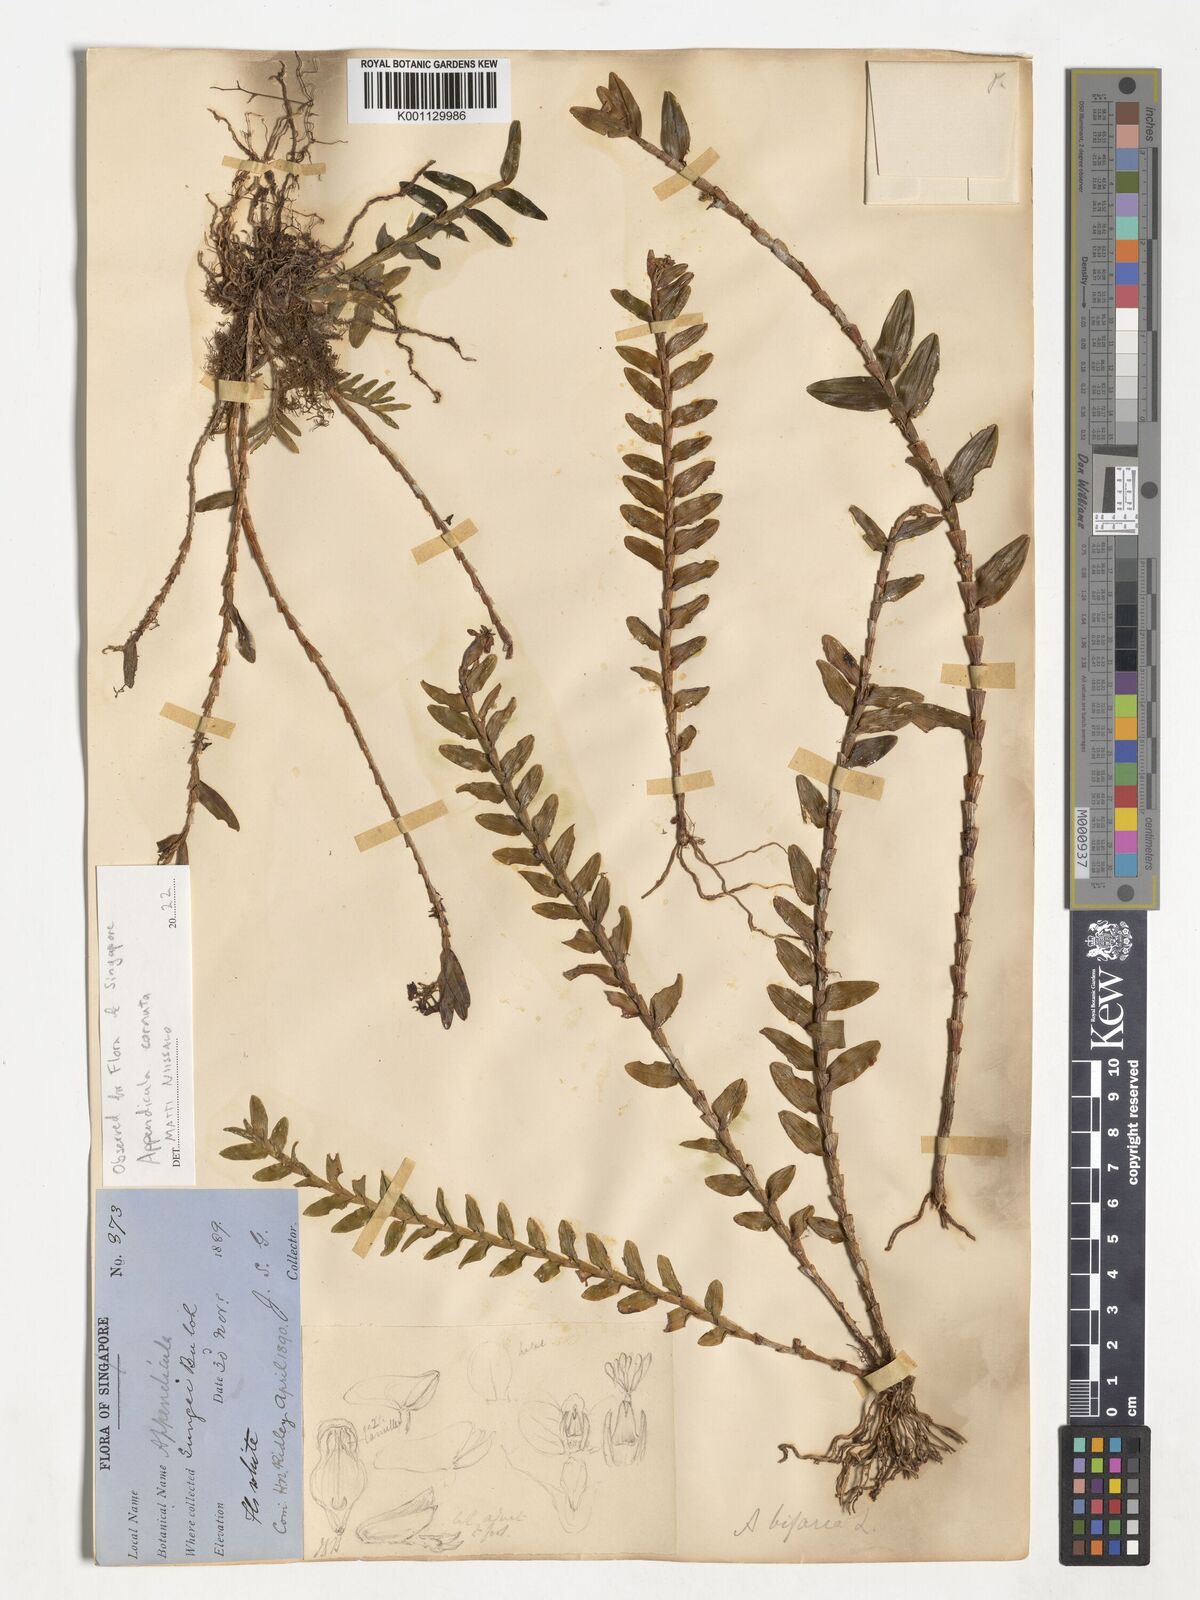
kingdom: Plantae
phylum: Tracheophyta
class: Liliopsida
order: Asparagales
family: Orchidaceae
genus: Appendicula
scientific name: Appendicula cornuta
